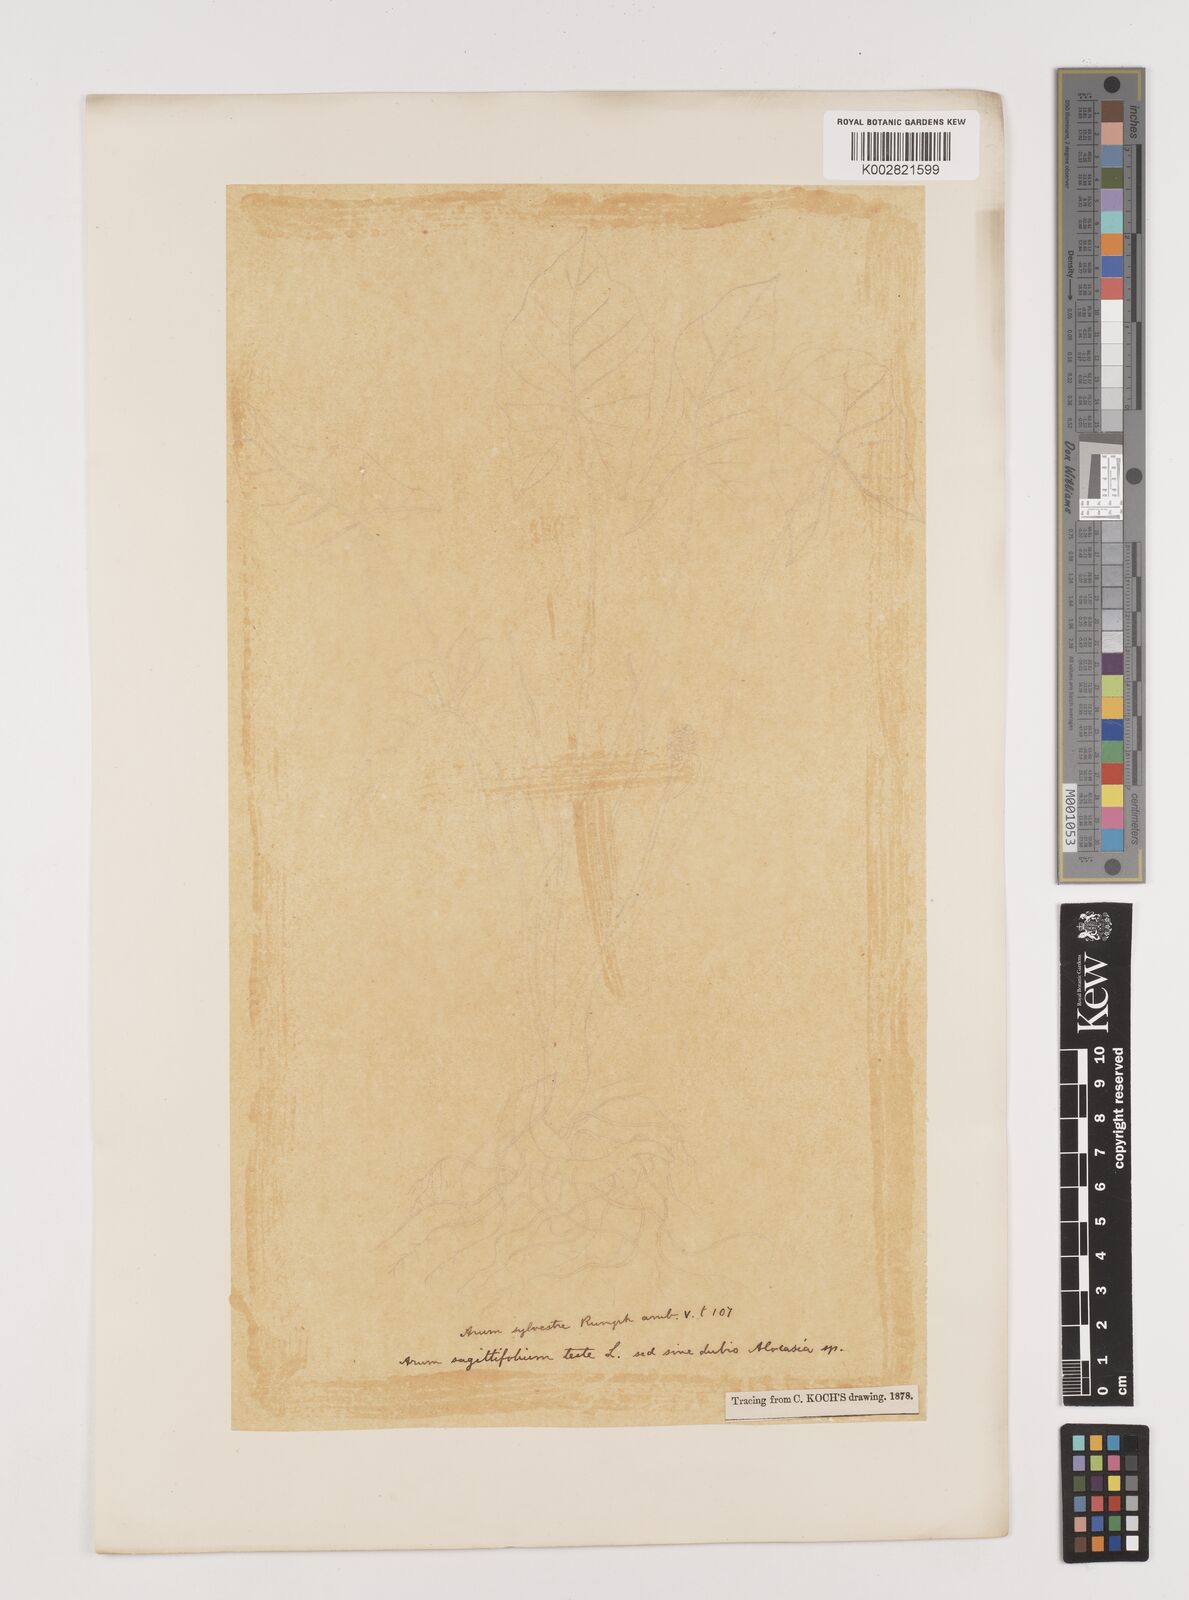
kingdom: Plantae
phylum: Tracheophyta
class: Liliopsida
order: Alismatales
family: Araceae
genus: Xanthosoma
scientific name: Xanthosoma sagittifolium
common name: Arrowleaf elephant's ear
